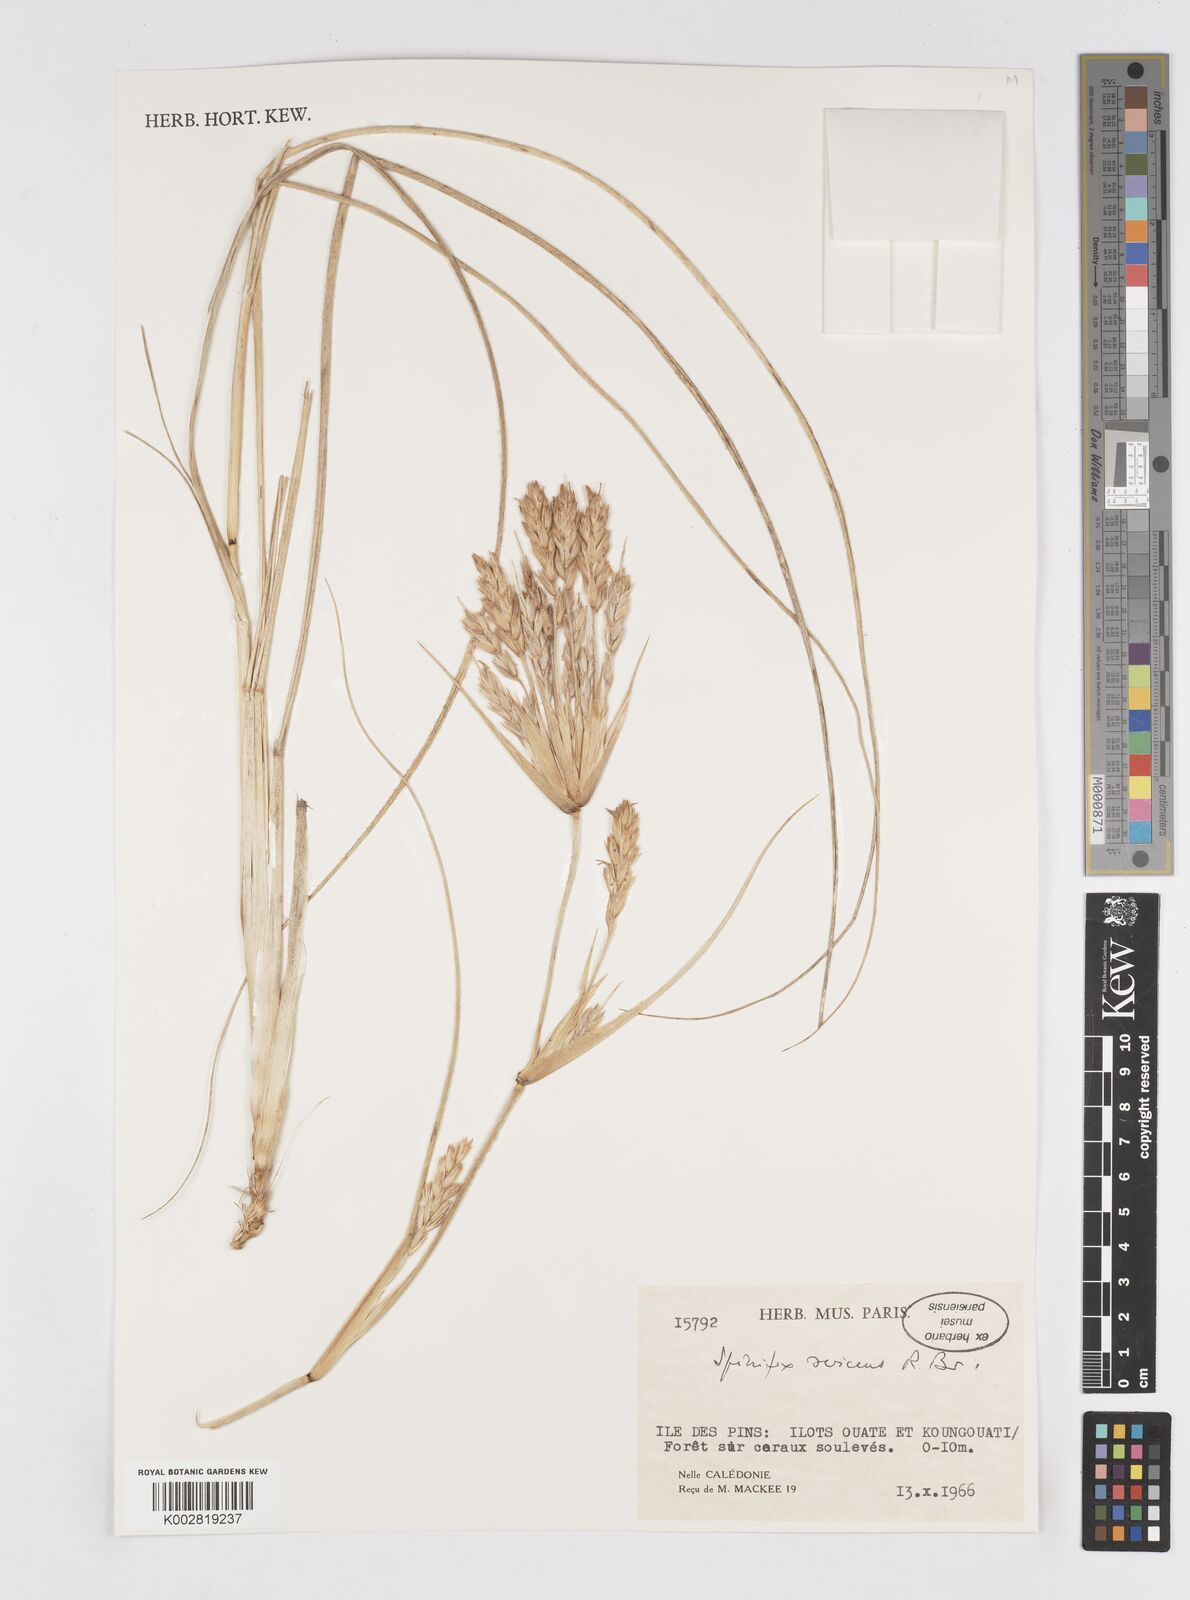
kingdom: Plantae
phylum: Tracheophyta
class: Liliopsida
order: Poales
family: Poaceae
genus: Spinifex
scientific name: Spinifex sericeus
